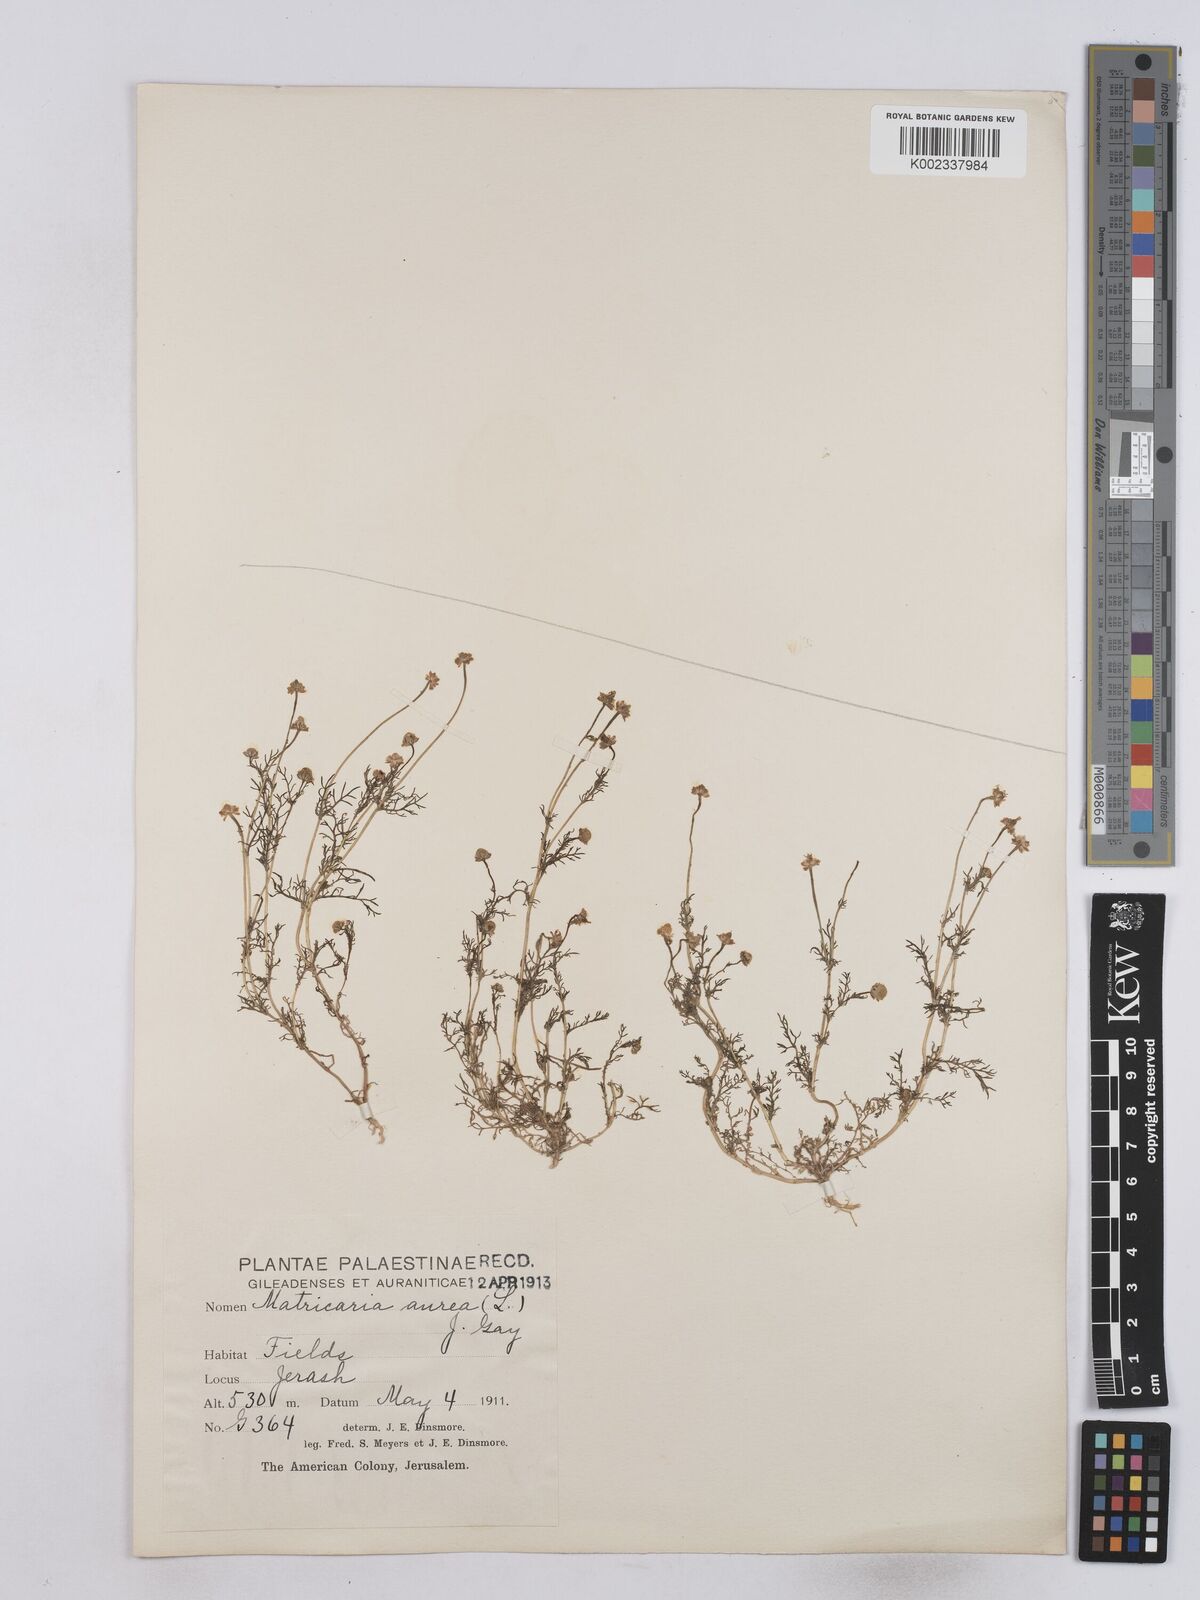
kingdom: Plantae
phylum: Tracheophyta
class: Magnoliopsida
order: Asterales
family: Asteraceae
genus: Matricaria
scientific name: Matricaria aurea
